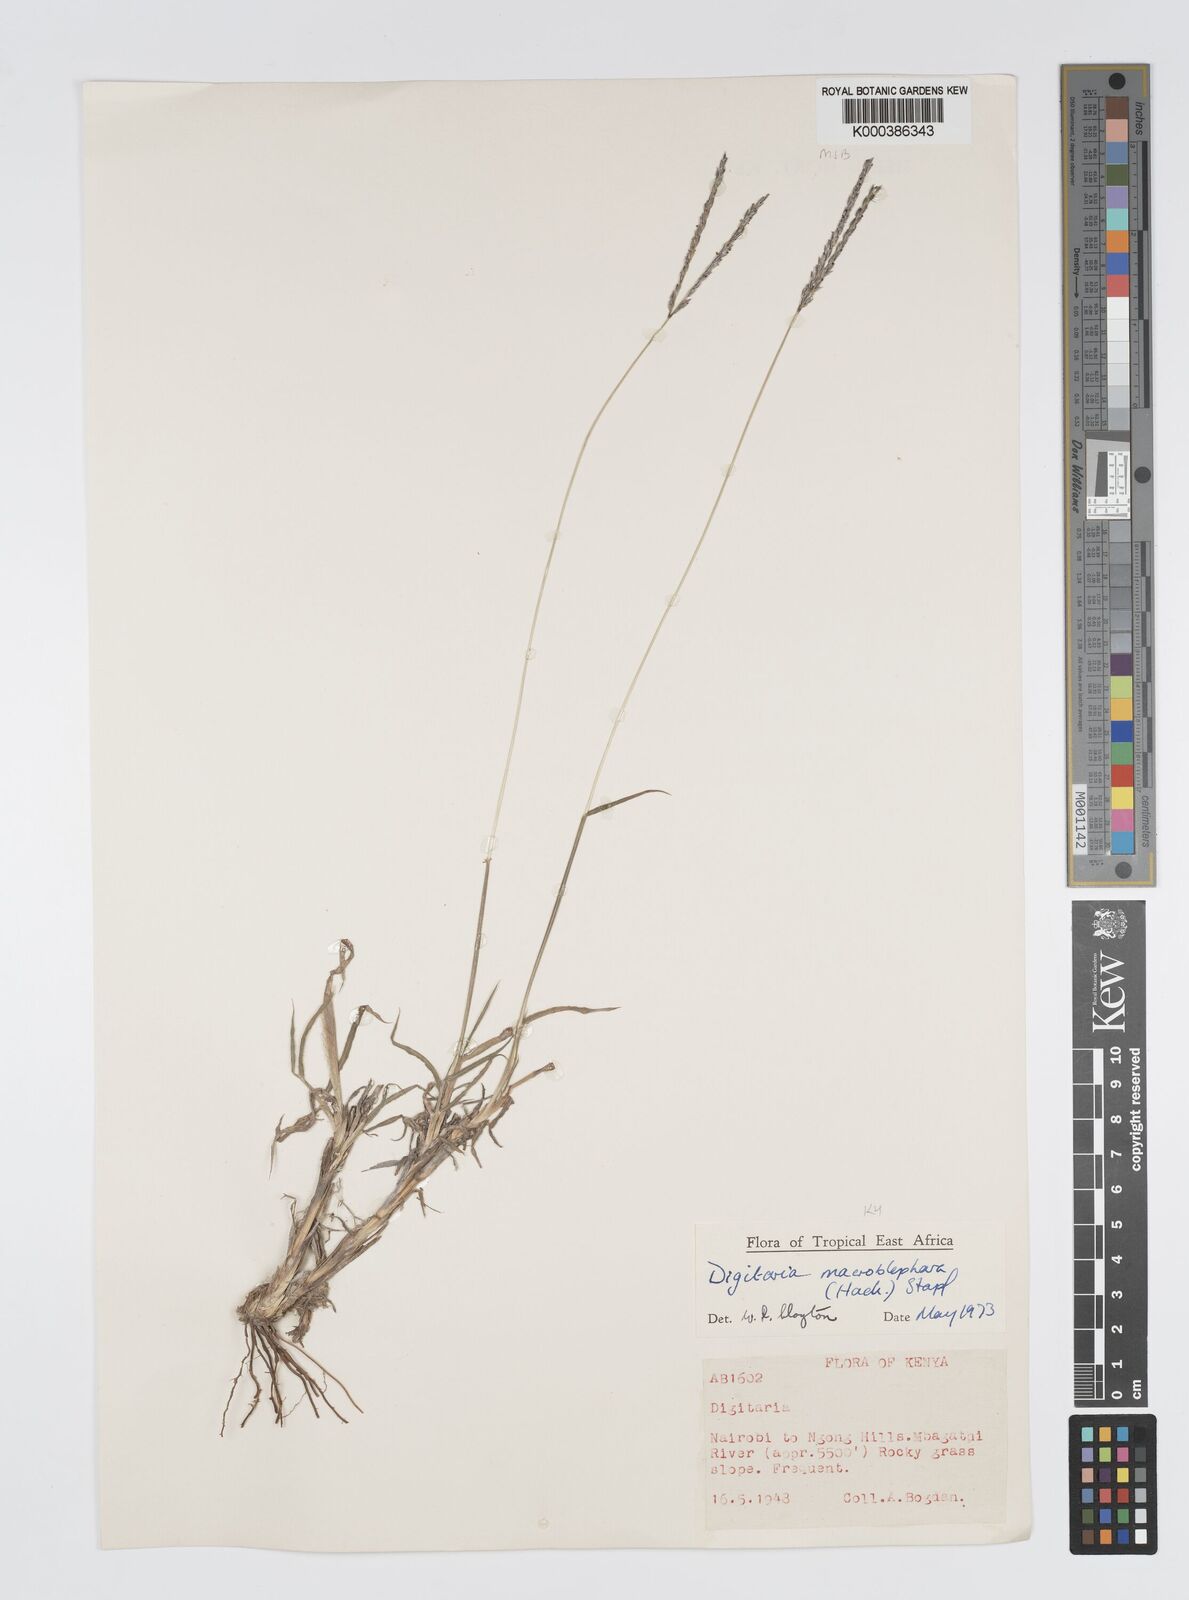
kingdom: Plantae
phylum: Tracheophyta
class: Liliopsida
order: Poales
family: Poaceae
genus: Digitaria
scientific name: Digitaria macroblephara
